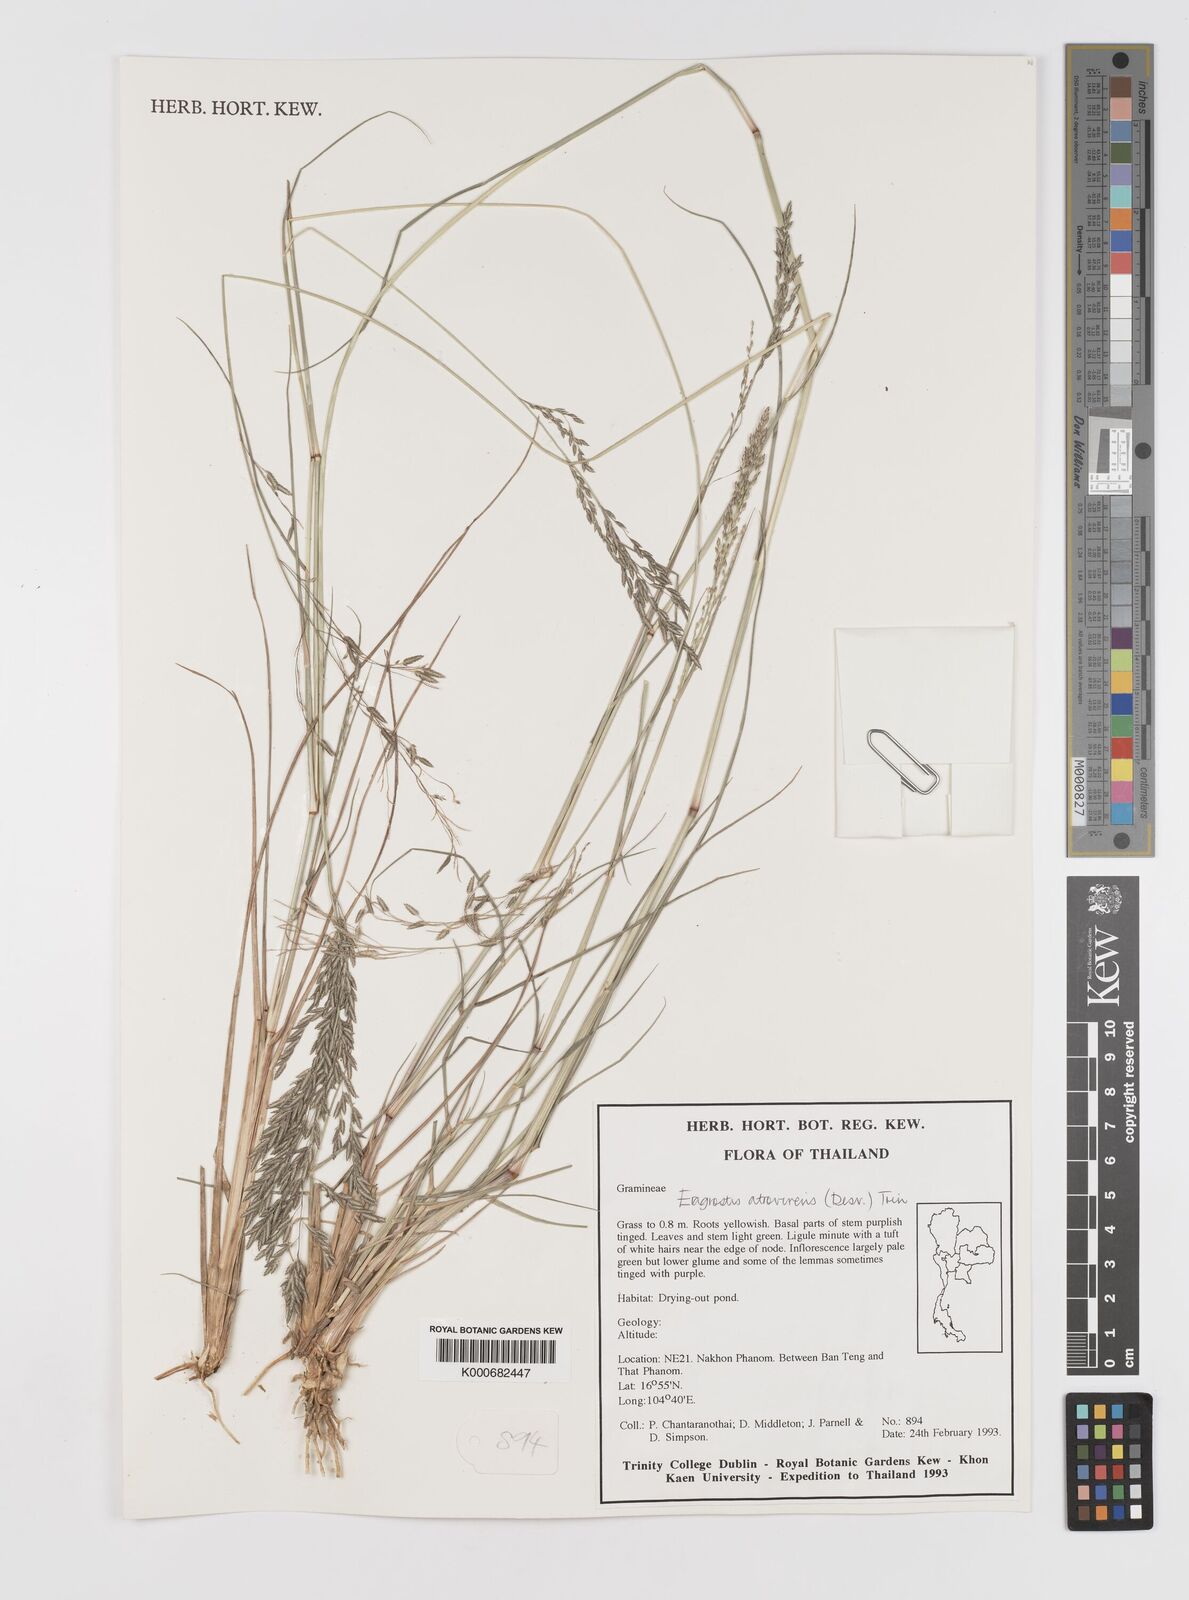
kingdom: Plantae
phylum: Tracheophyta
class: Liliopsida
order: Poales
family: Poaceae
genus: Eragrostis
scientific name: Eragrostis
